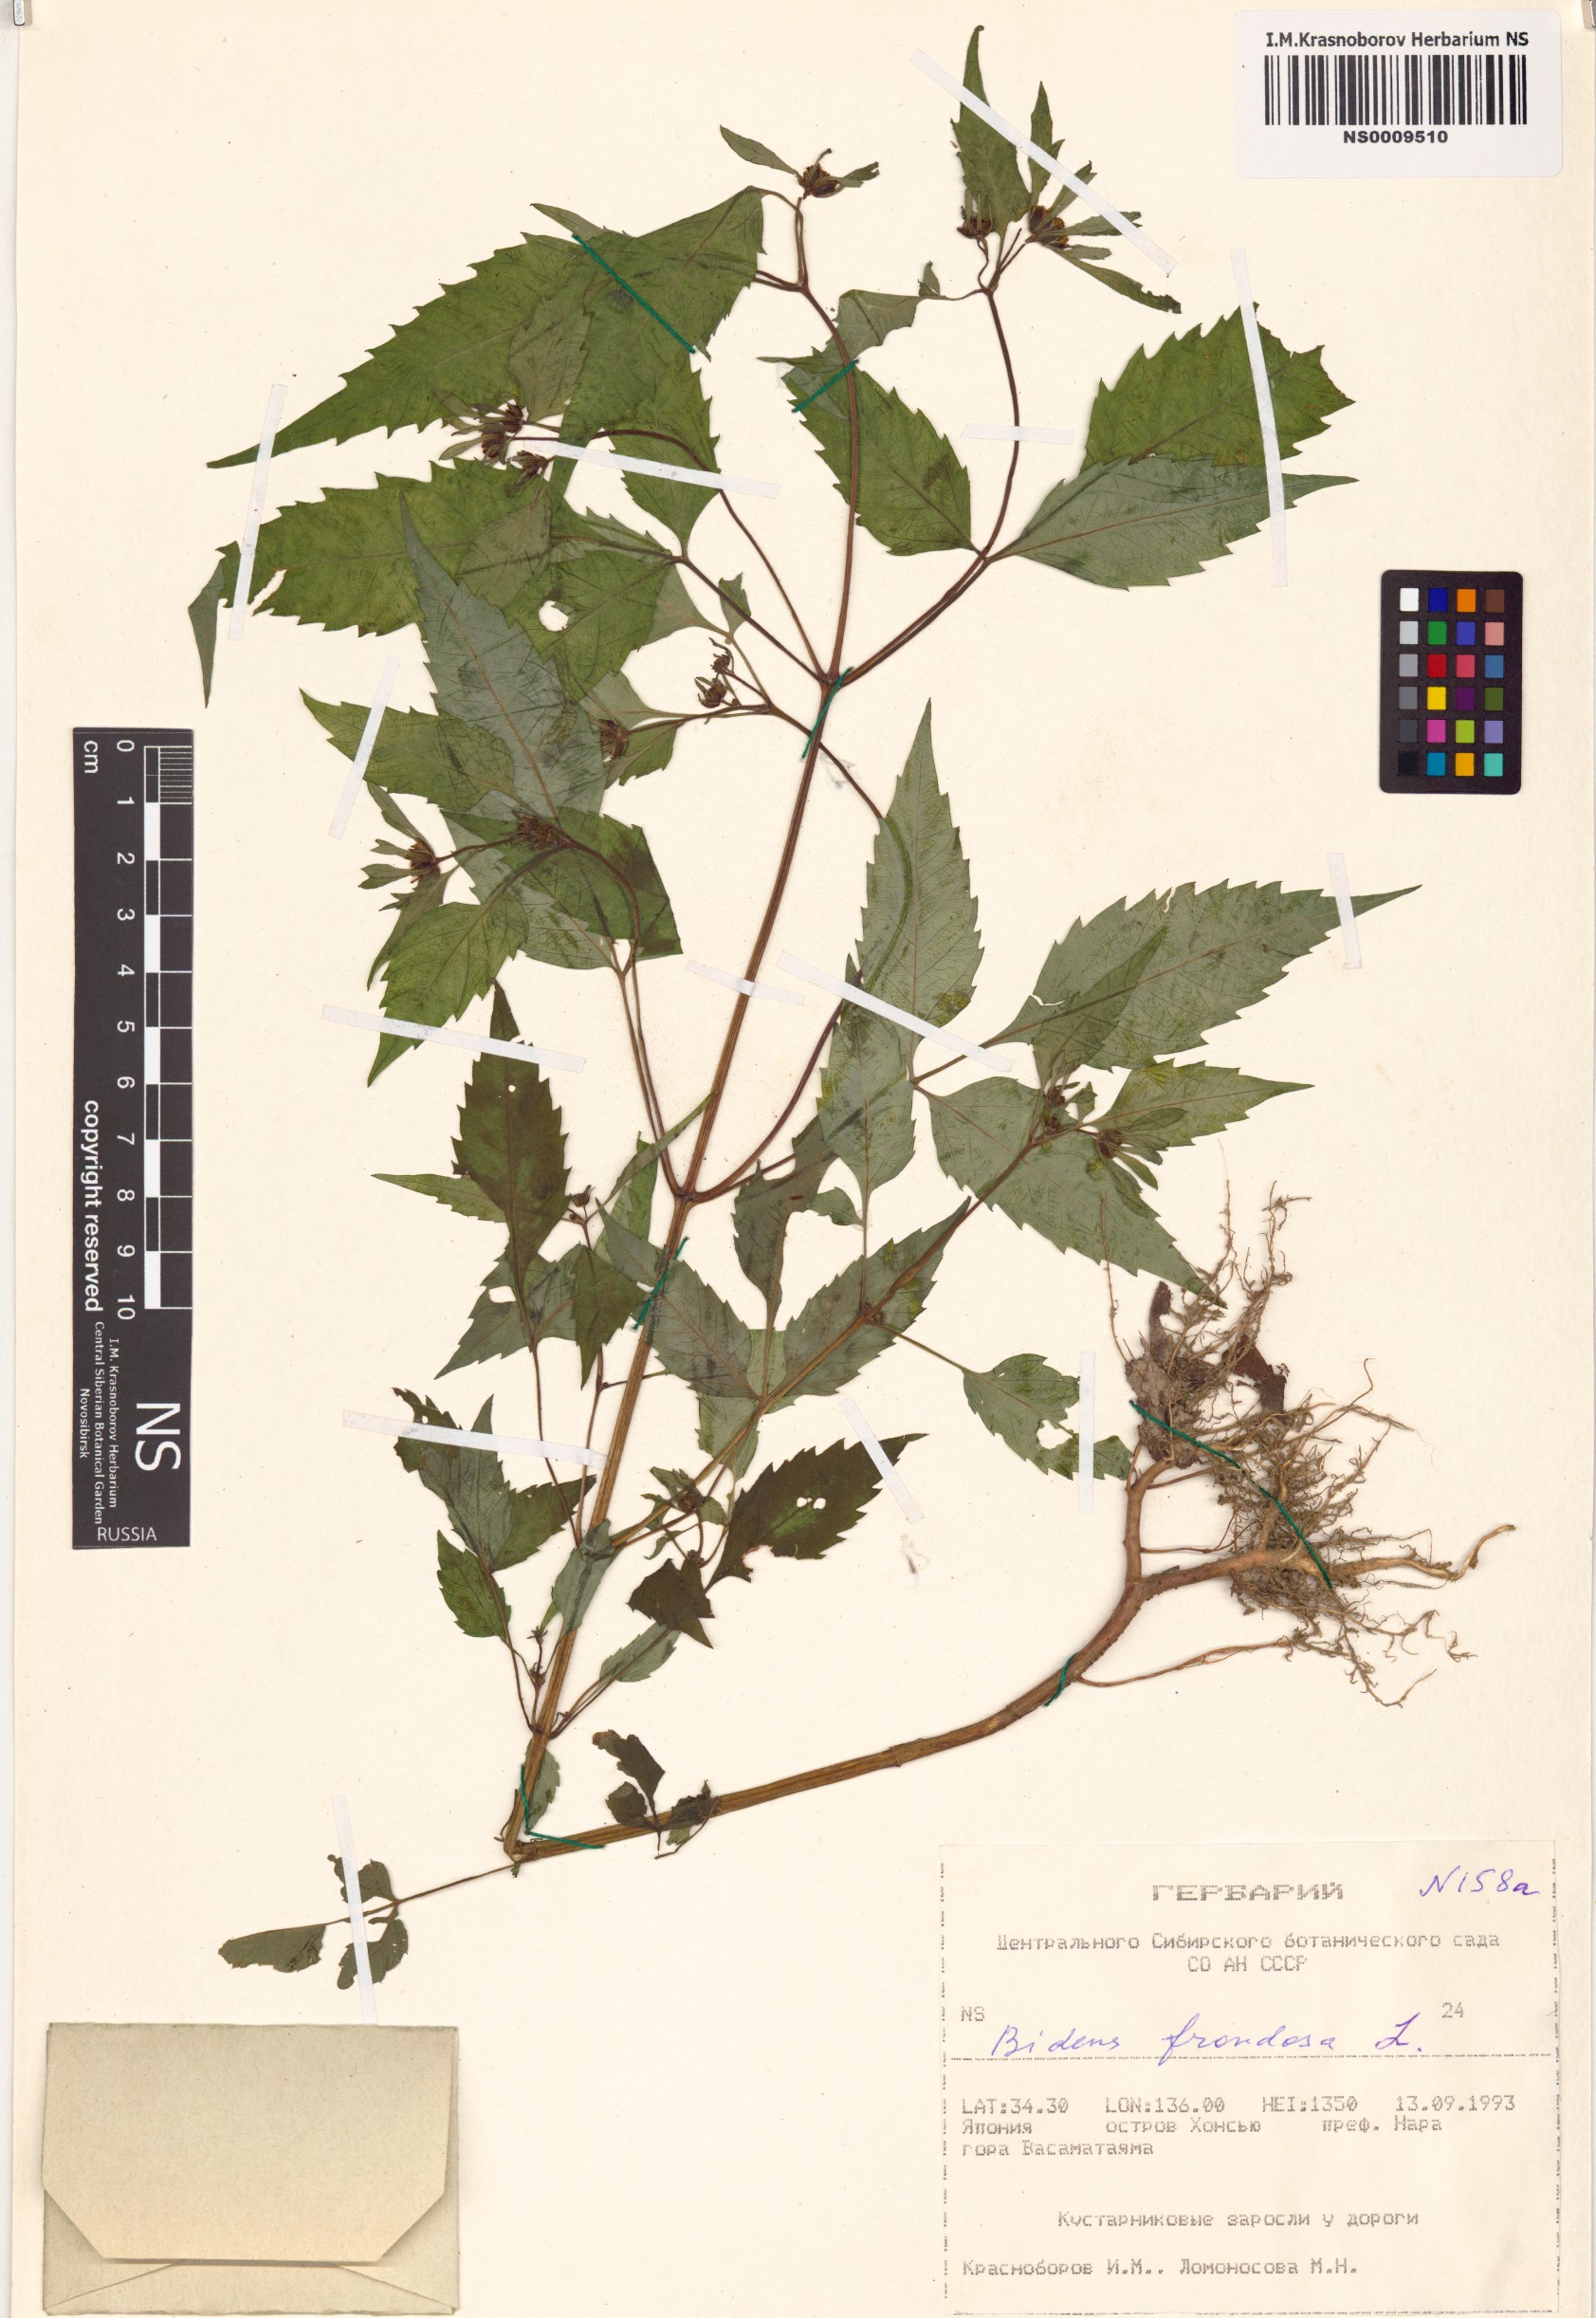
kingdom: Plantae
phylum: Tracheophyta
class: Magnoliopsida
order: Asterales
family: Asteraceae
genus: Bidens
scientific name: Bidens frondosa
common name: Beggarticks
